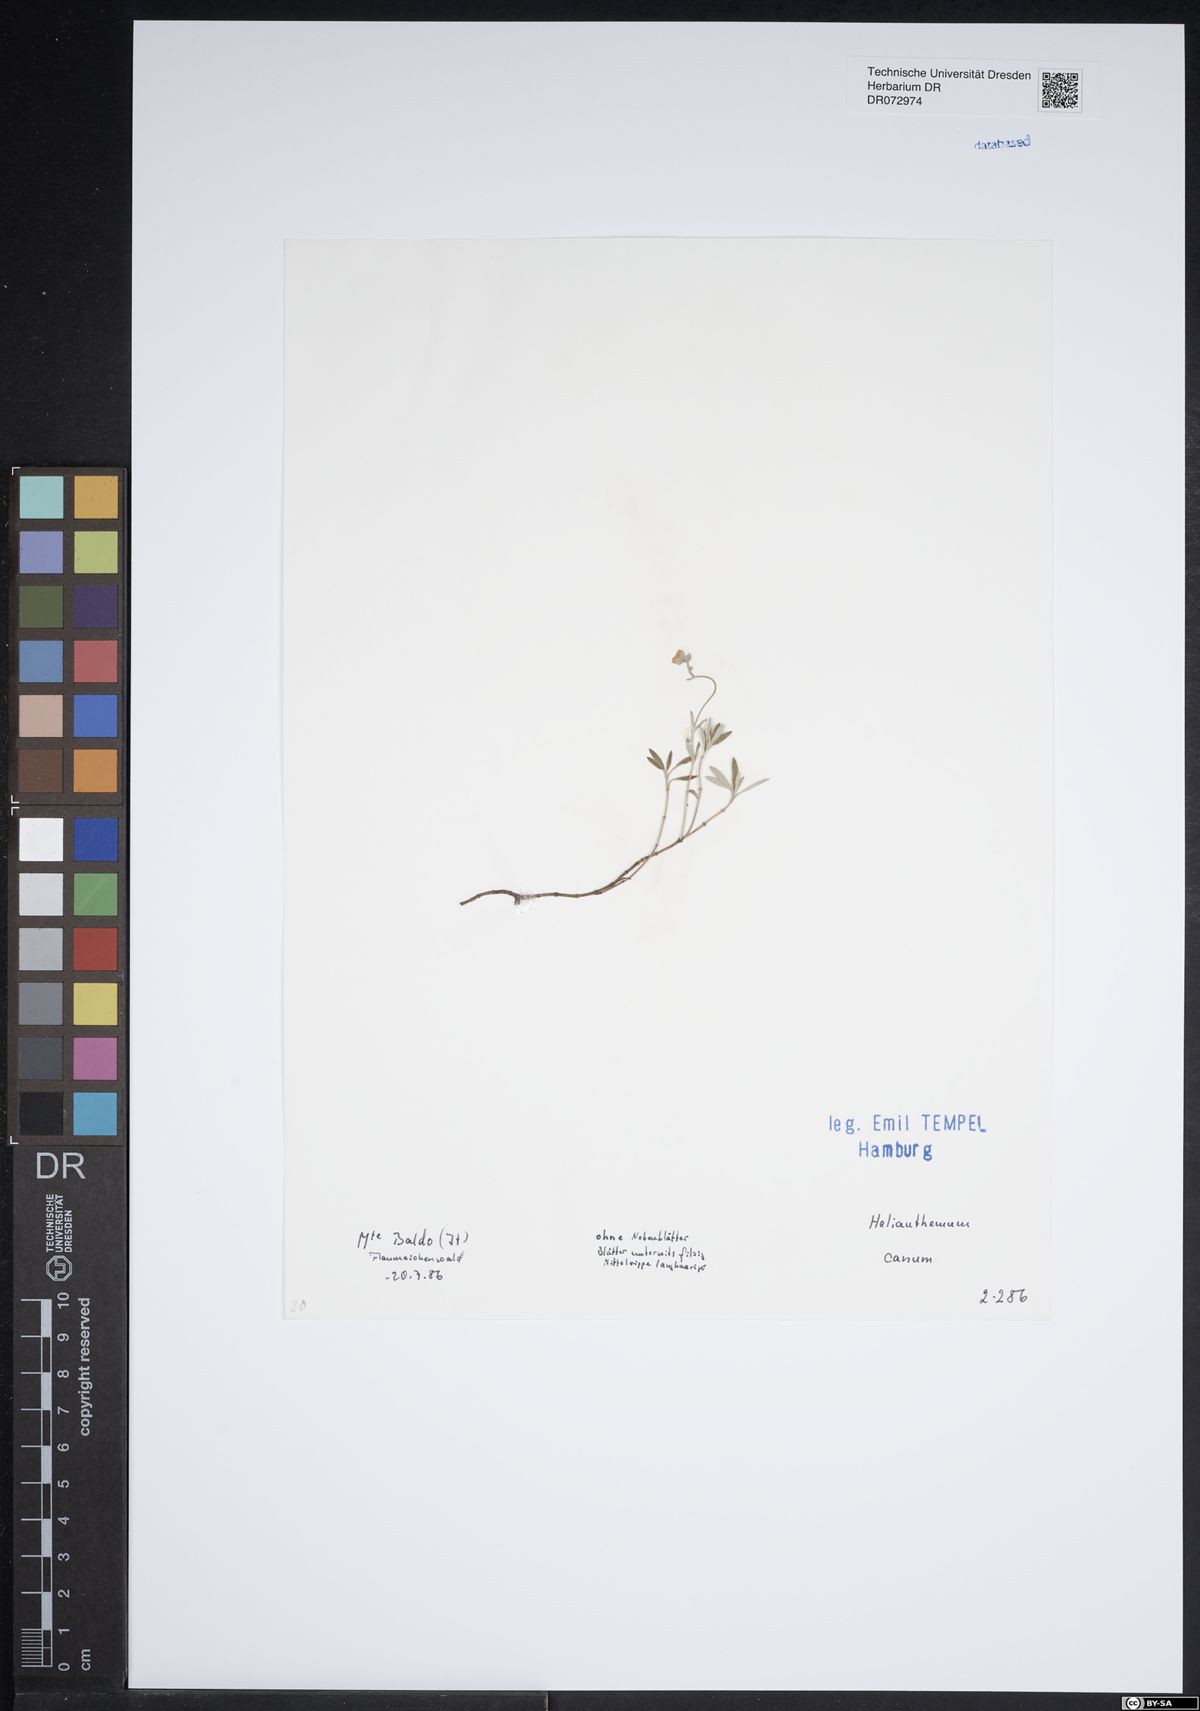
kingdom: Plantae
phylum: Tracheophyta
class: Magnoliopsida
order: Malvales
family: Cistaceae
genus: Helianthemum
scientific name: Helianthemum canum
